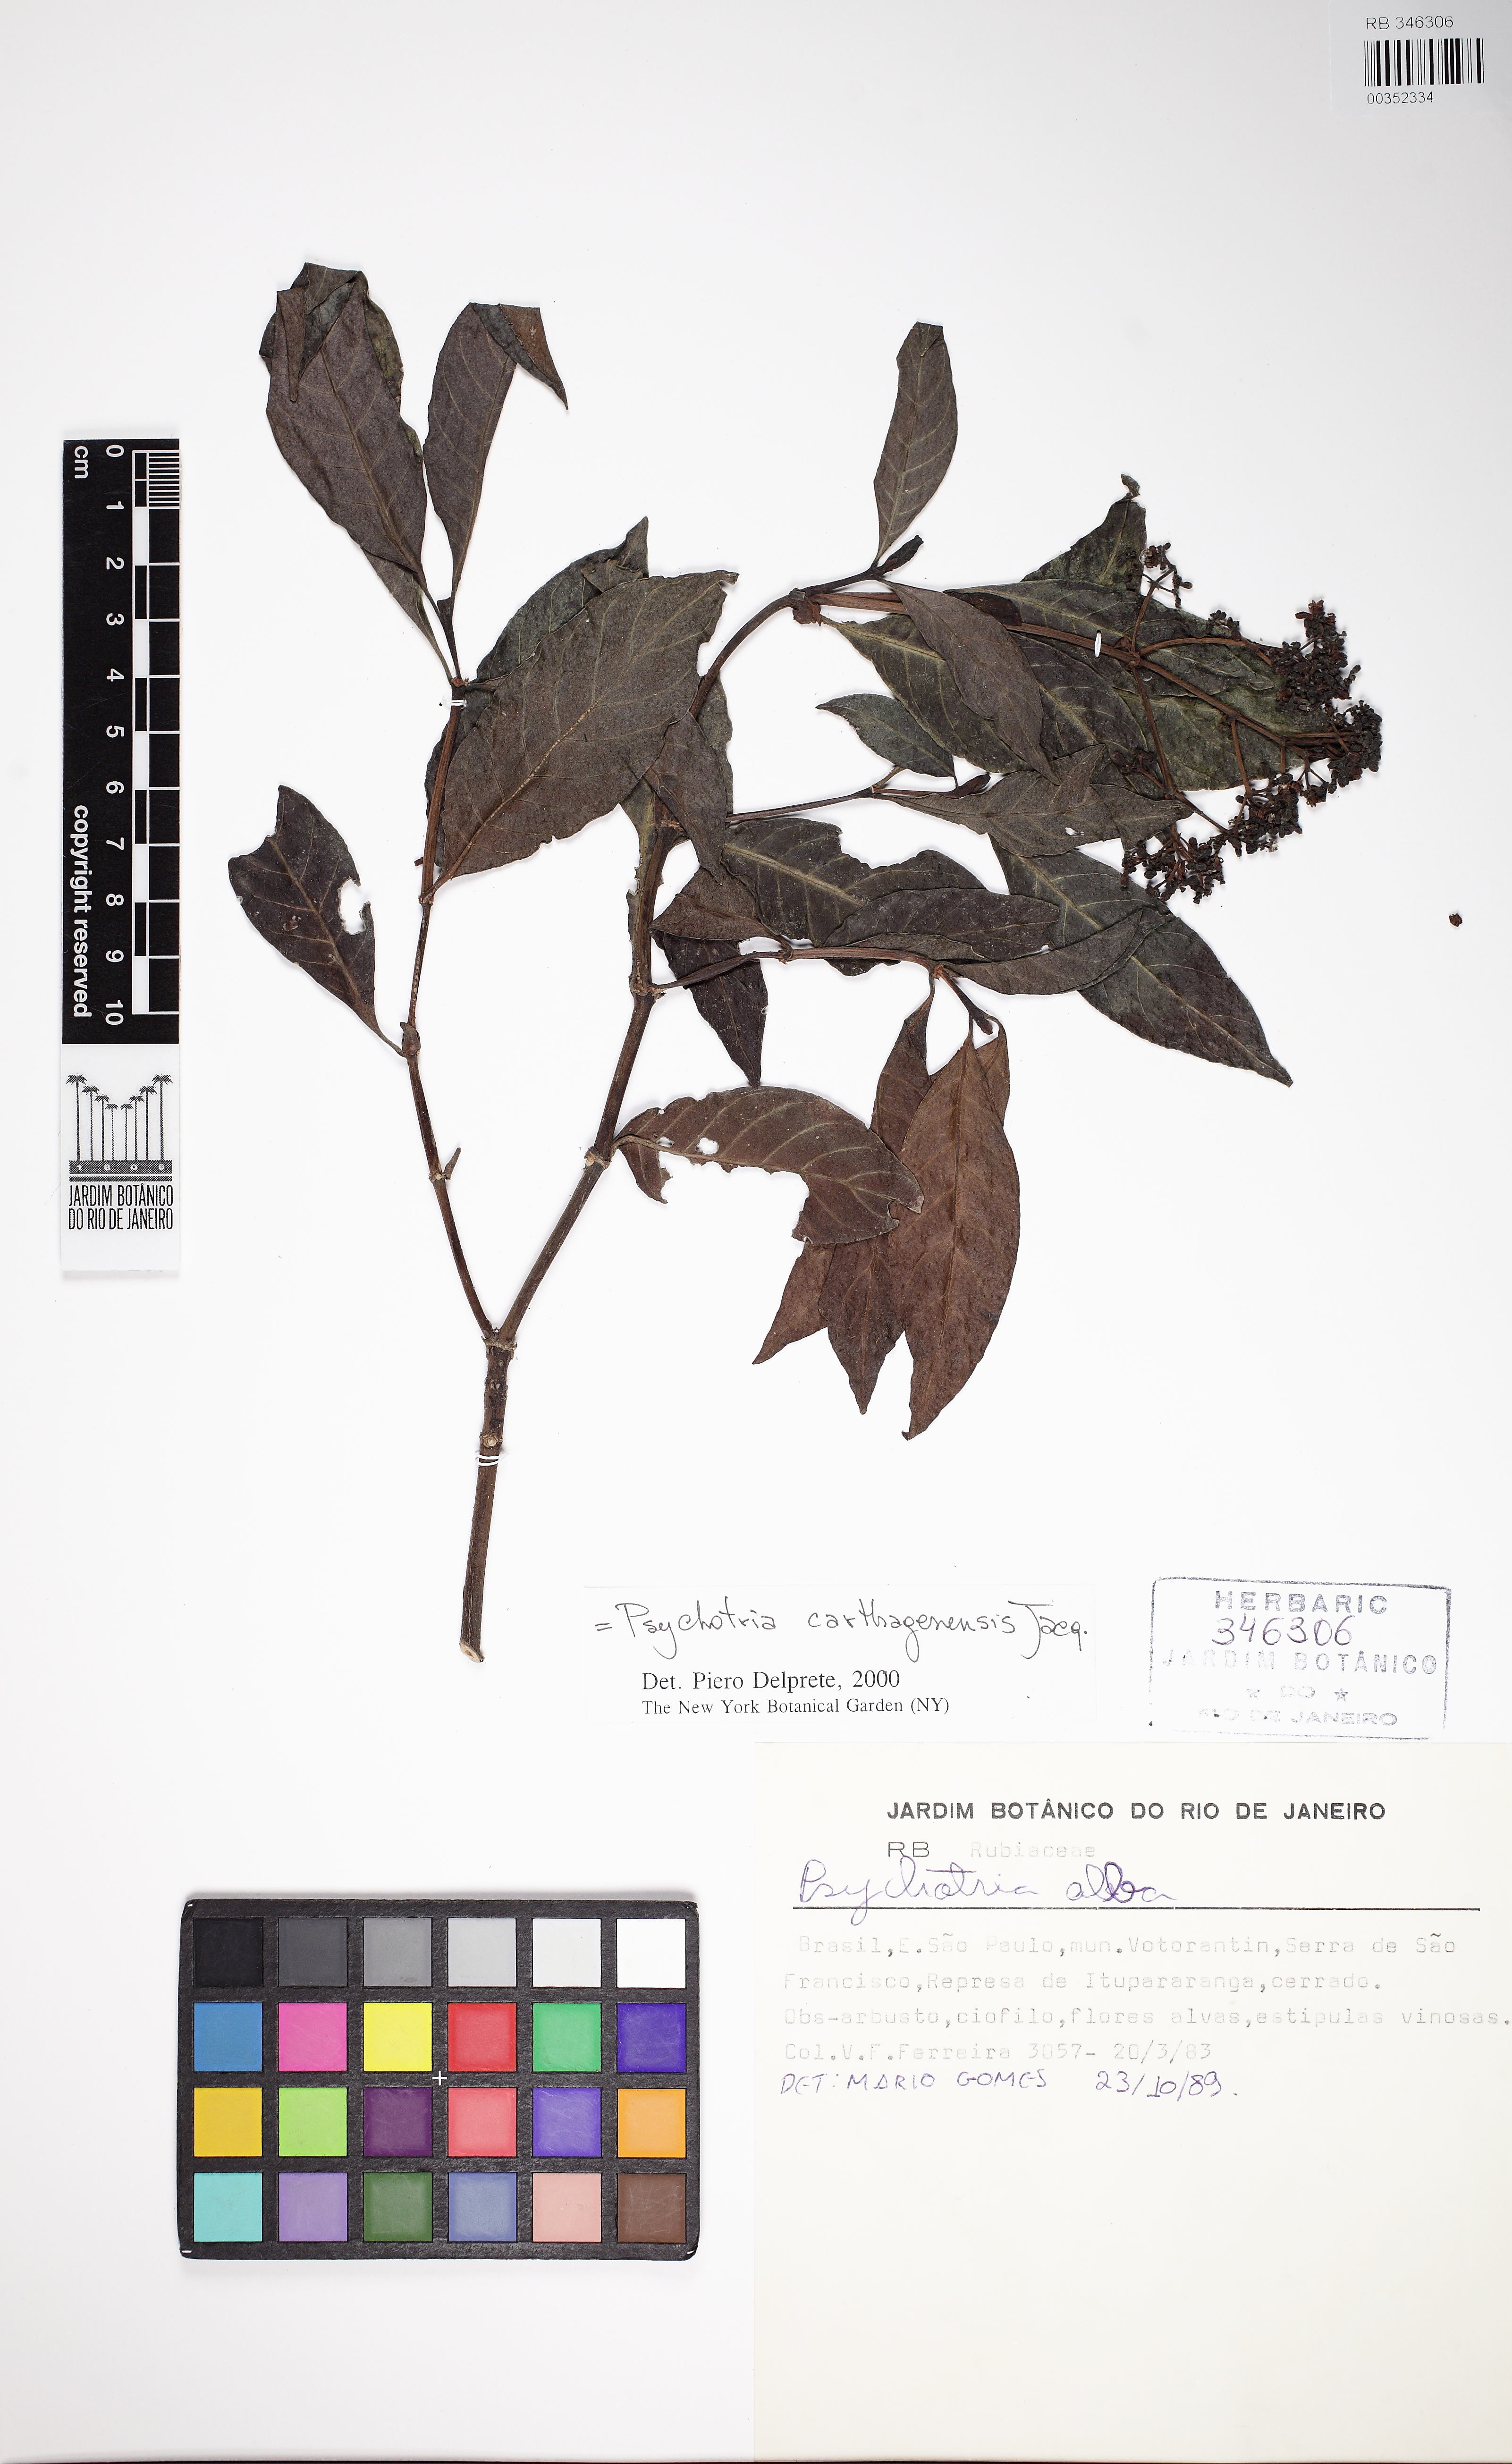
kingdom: Plantae
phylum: Tracheophyta
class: Magnoliopsida
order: Gentianales
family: Rubiaceae
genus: Psychotria
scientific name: Psychotria carthagenensis
